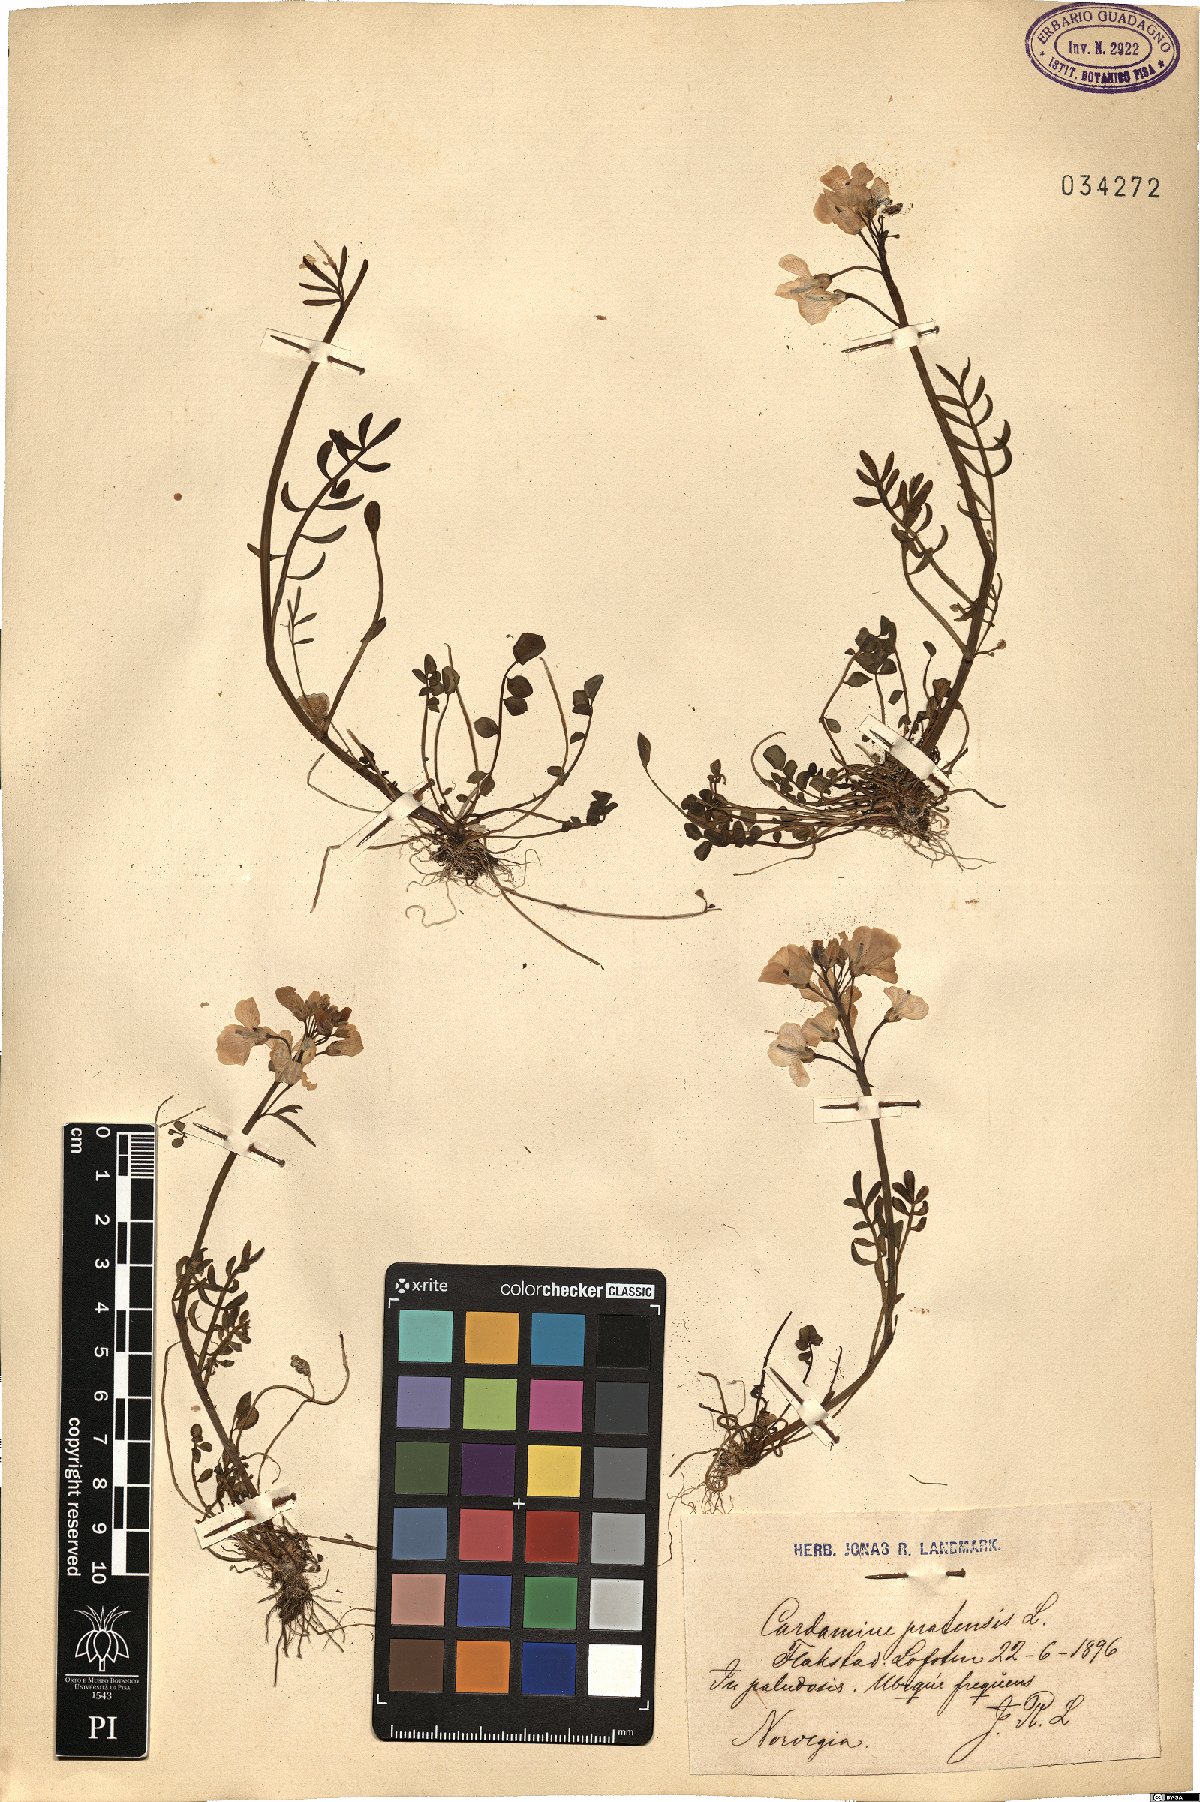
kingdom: Plantae
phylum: Tracheophyta
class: Magnoliopsida
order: Brassicales
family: Brassicaceae
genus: Cardamine
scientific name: Cardamine pratensis
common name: Cuckoo flower
